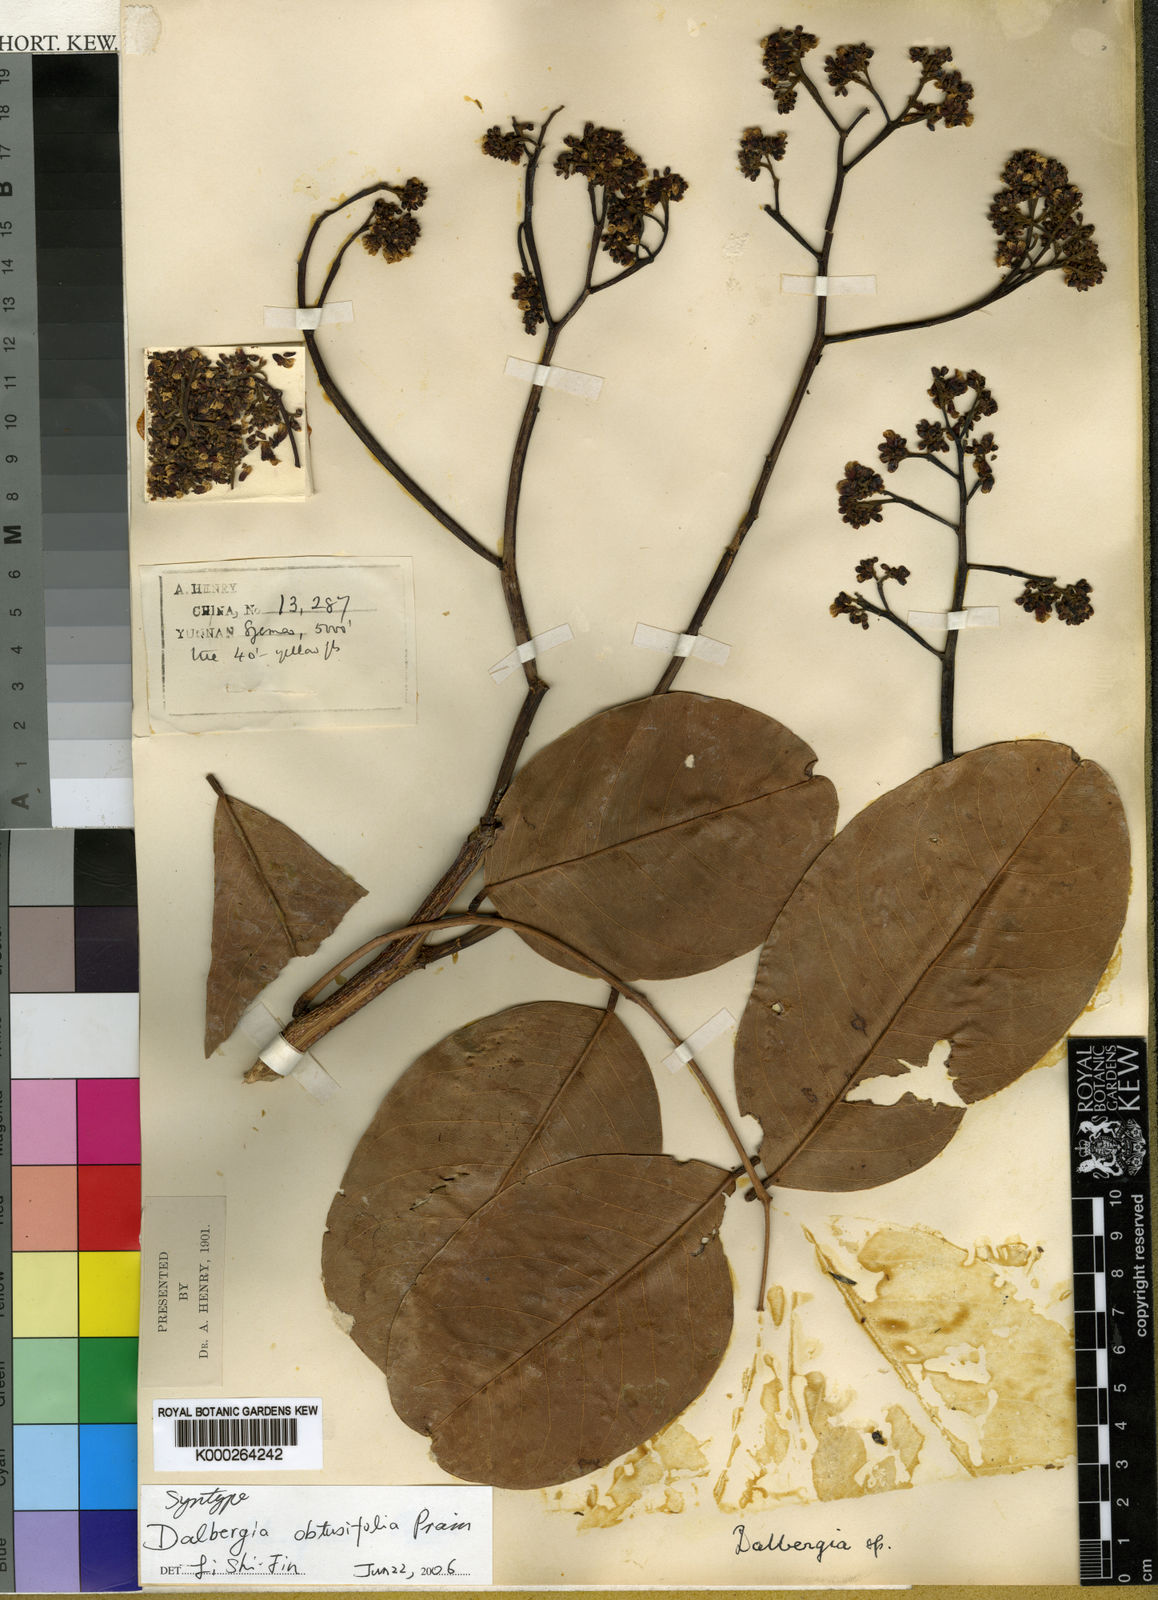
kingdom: Plantae
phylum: Tracheophyta
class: Magnoliopsida
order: Fabales
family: Fabaceae
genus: Dalbergia
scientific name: Dalbergia ovata
